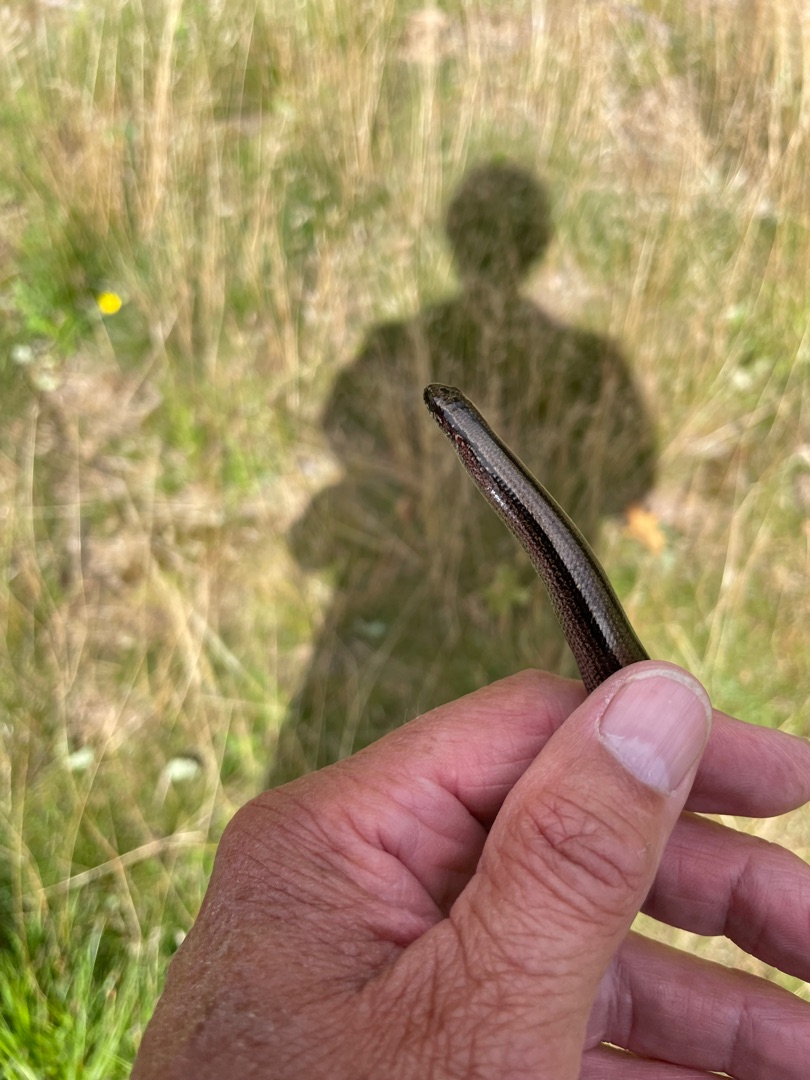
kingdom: Animalia
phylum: Chordata
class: Squamata
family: Anguidae
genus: Anguis
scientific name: Anguis fragilis
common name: Stålorm
